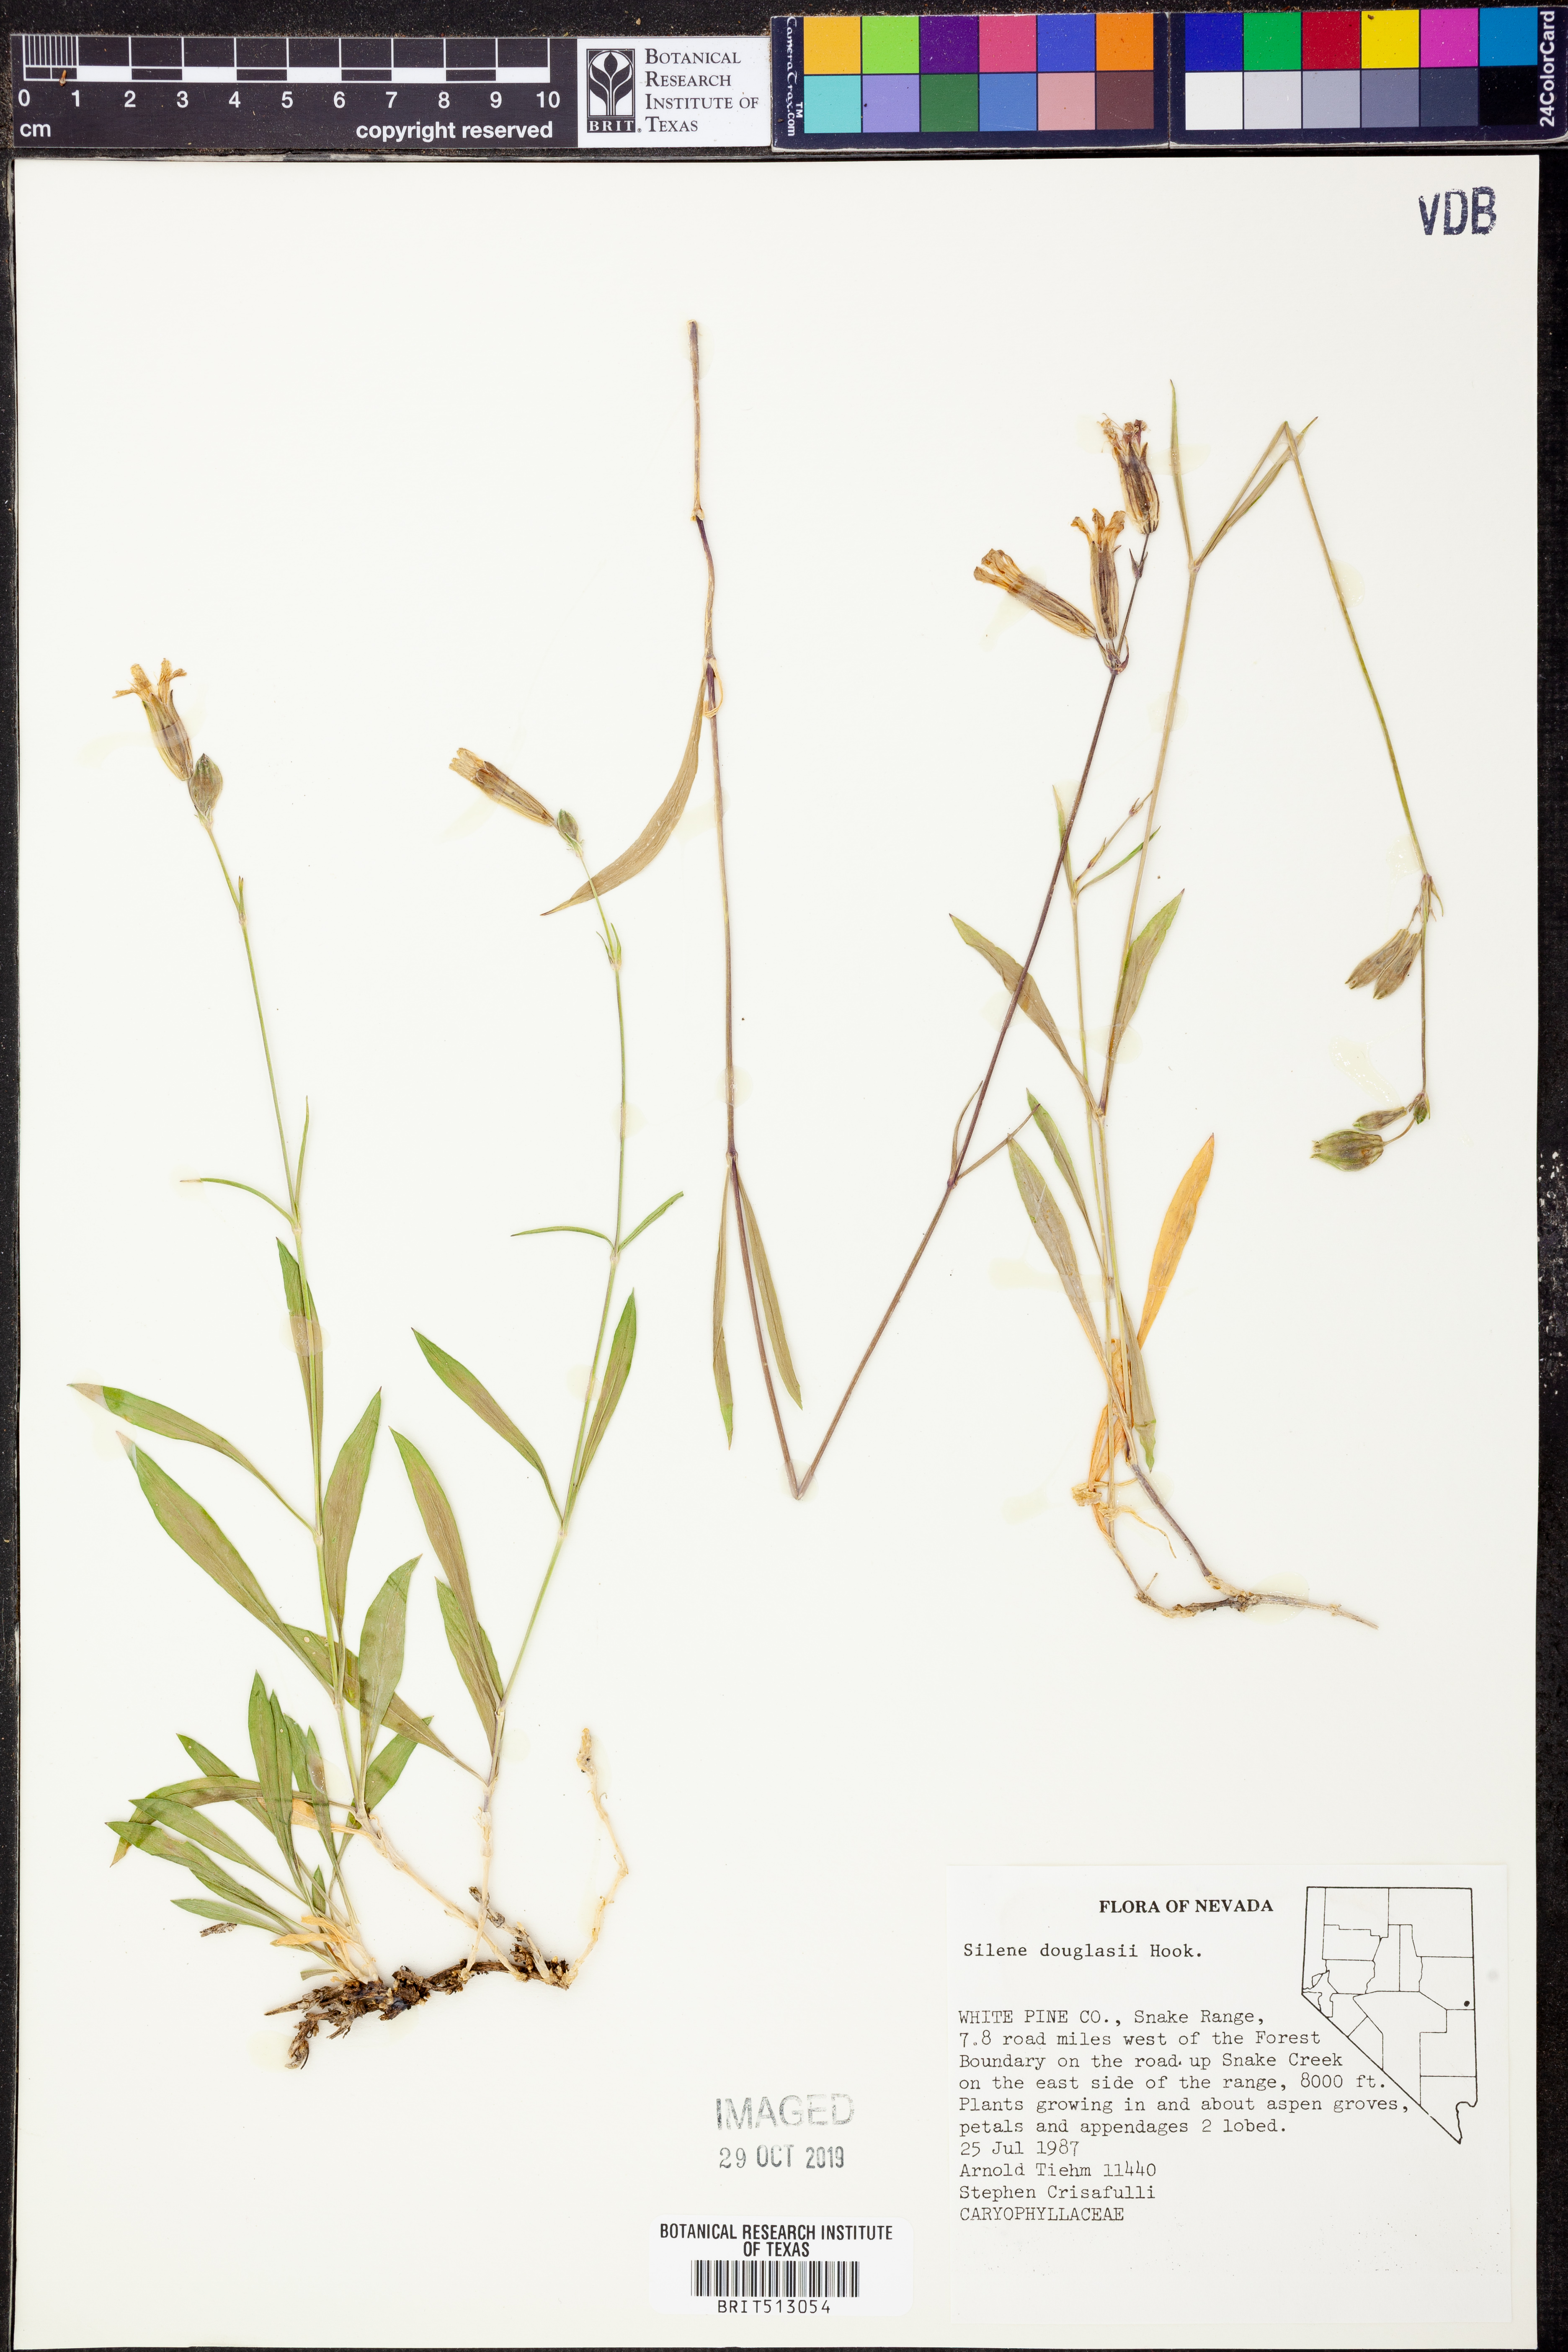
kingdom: Plantae
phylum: Tracheophyta
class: Magnoliopsida
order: Caryophyllales
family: Caryophyllaceae
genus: Silene
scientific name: Silene douglasii
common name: Douglas's catchfly
